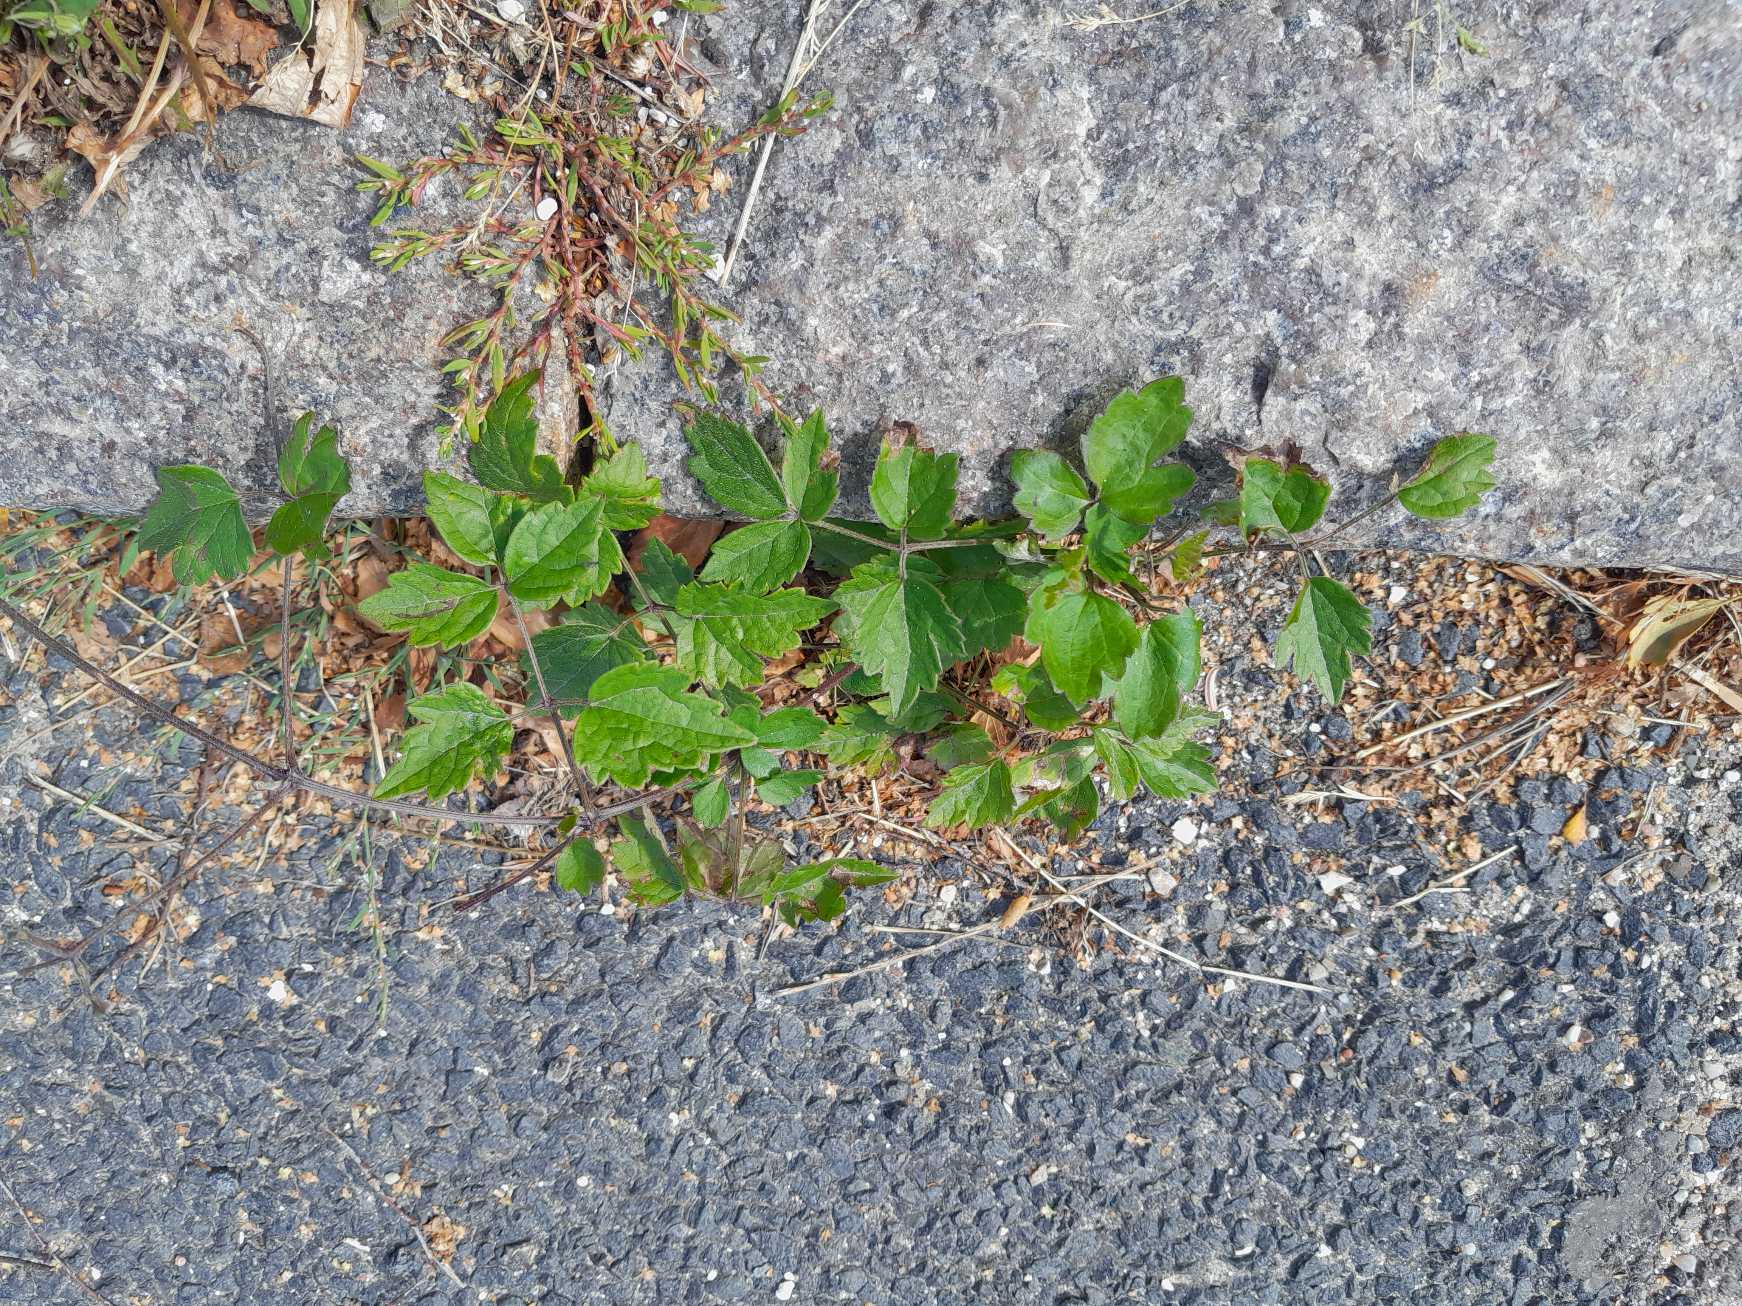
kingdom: Plantae
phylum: Tracheophyta
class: Magnoliopsida
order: Ranunculales
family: Ranunculaceae
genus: Clematis
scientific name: Clematis vitalba
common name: Skovranke
